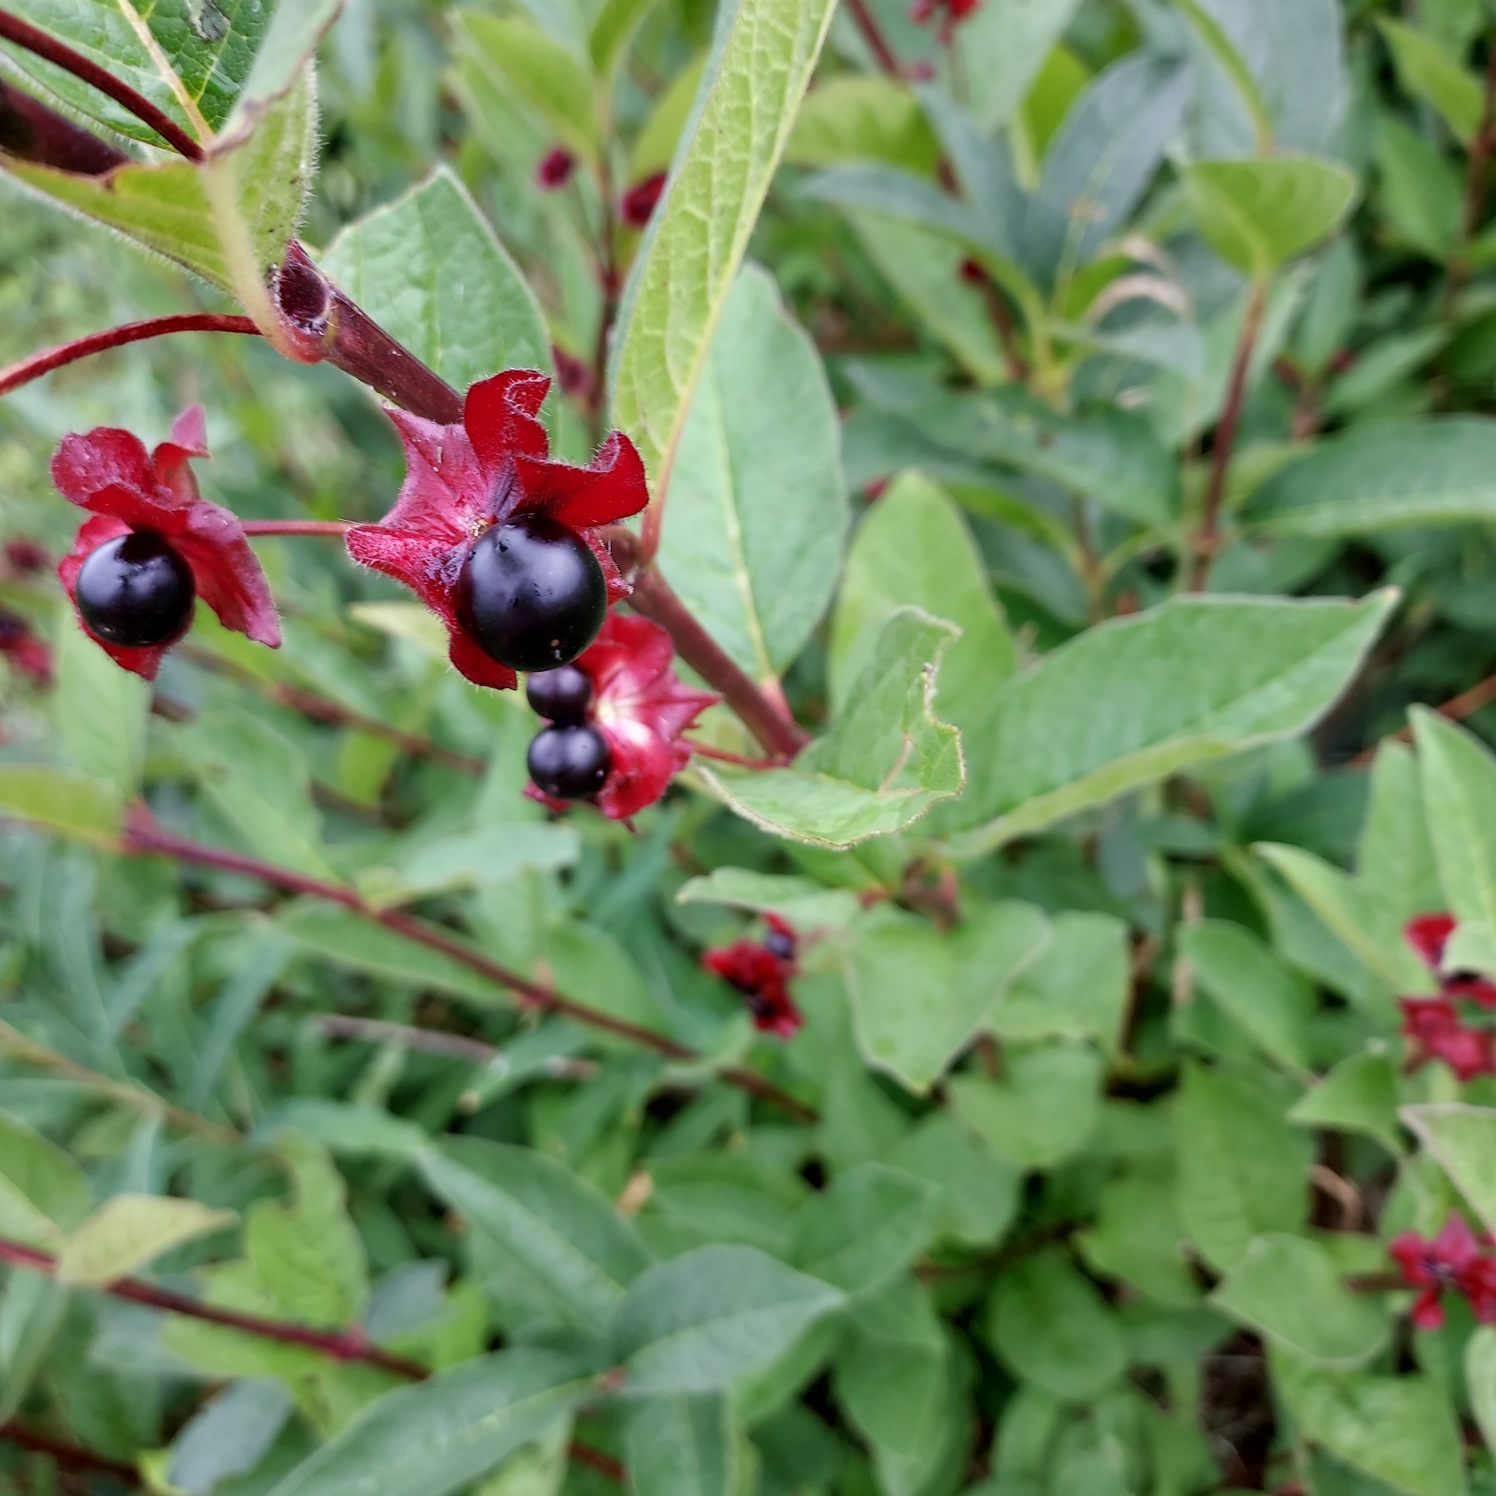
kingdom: Plantae
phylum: Tracheophyta
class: Magnoliopsida
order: Dipsacales
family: Caprifoliaceae
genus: Lonicera
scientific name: Lonicera involucrata
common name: Svøb-gedeblad (varietet)
